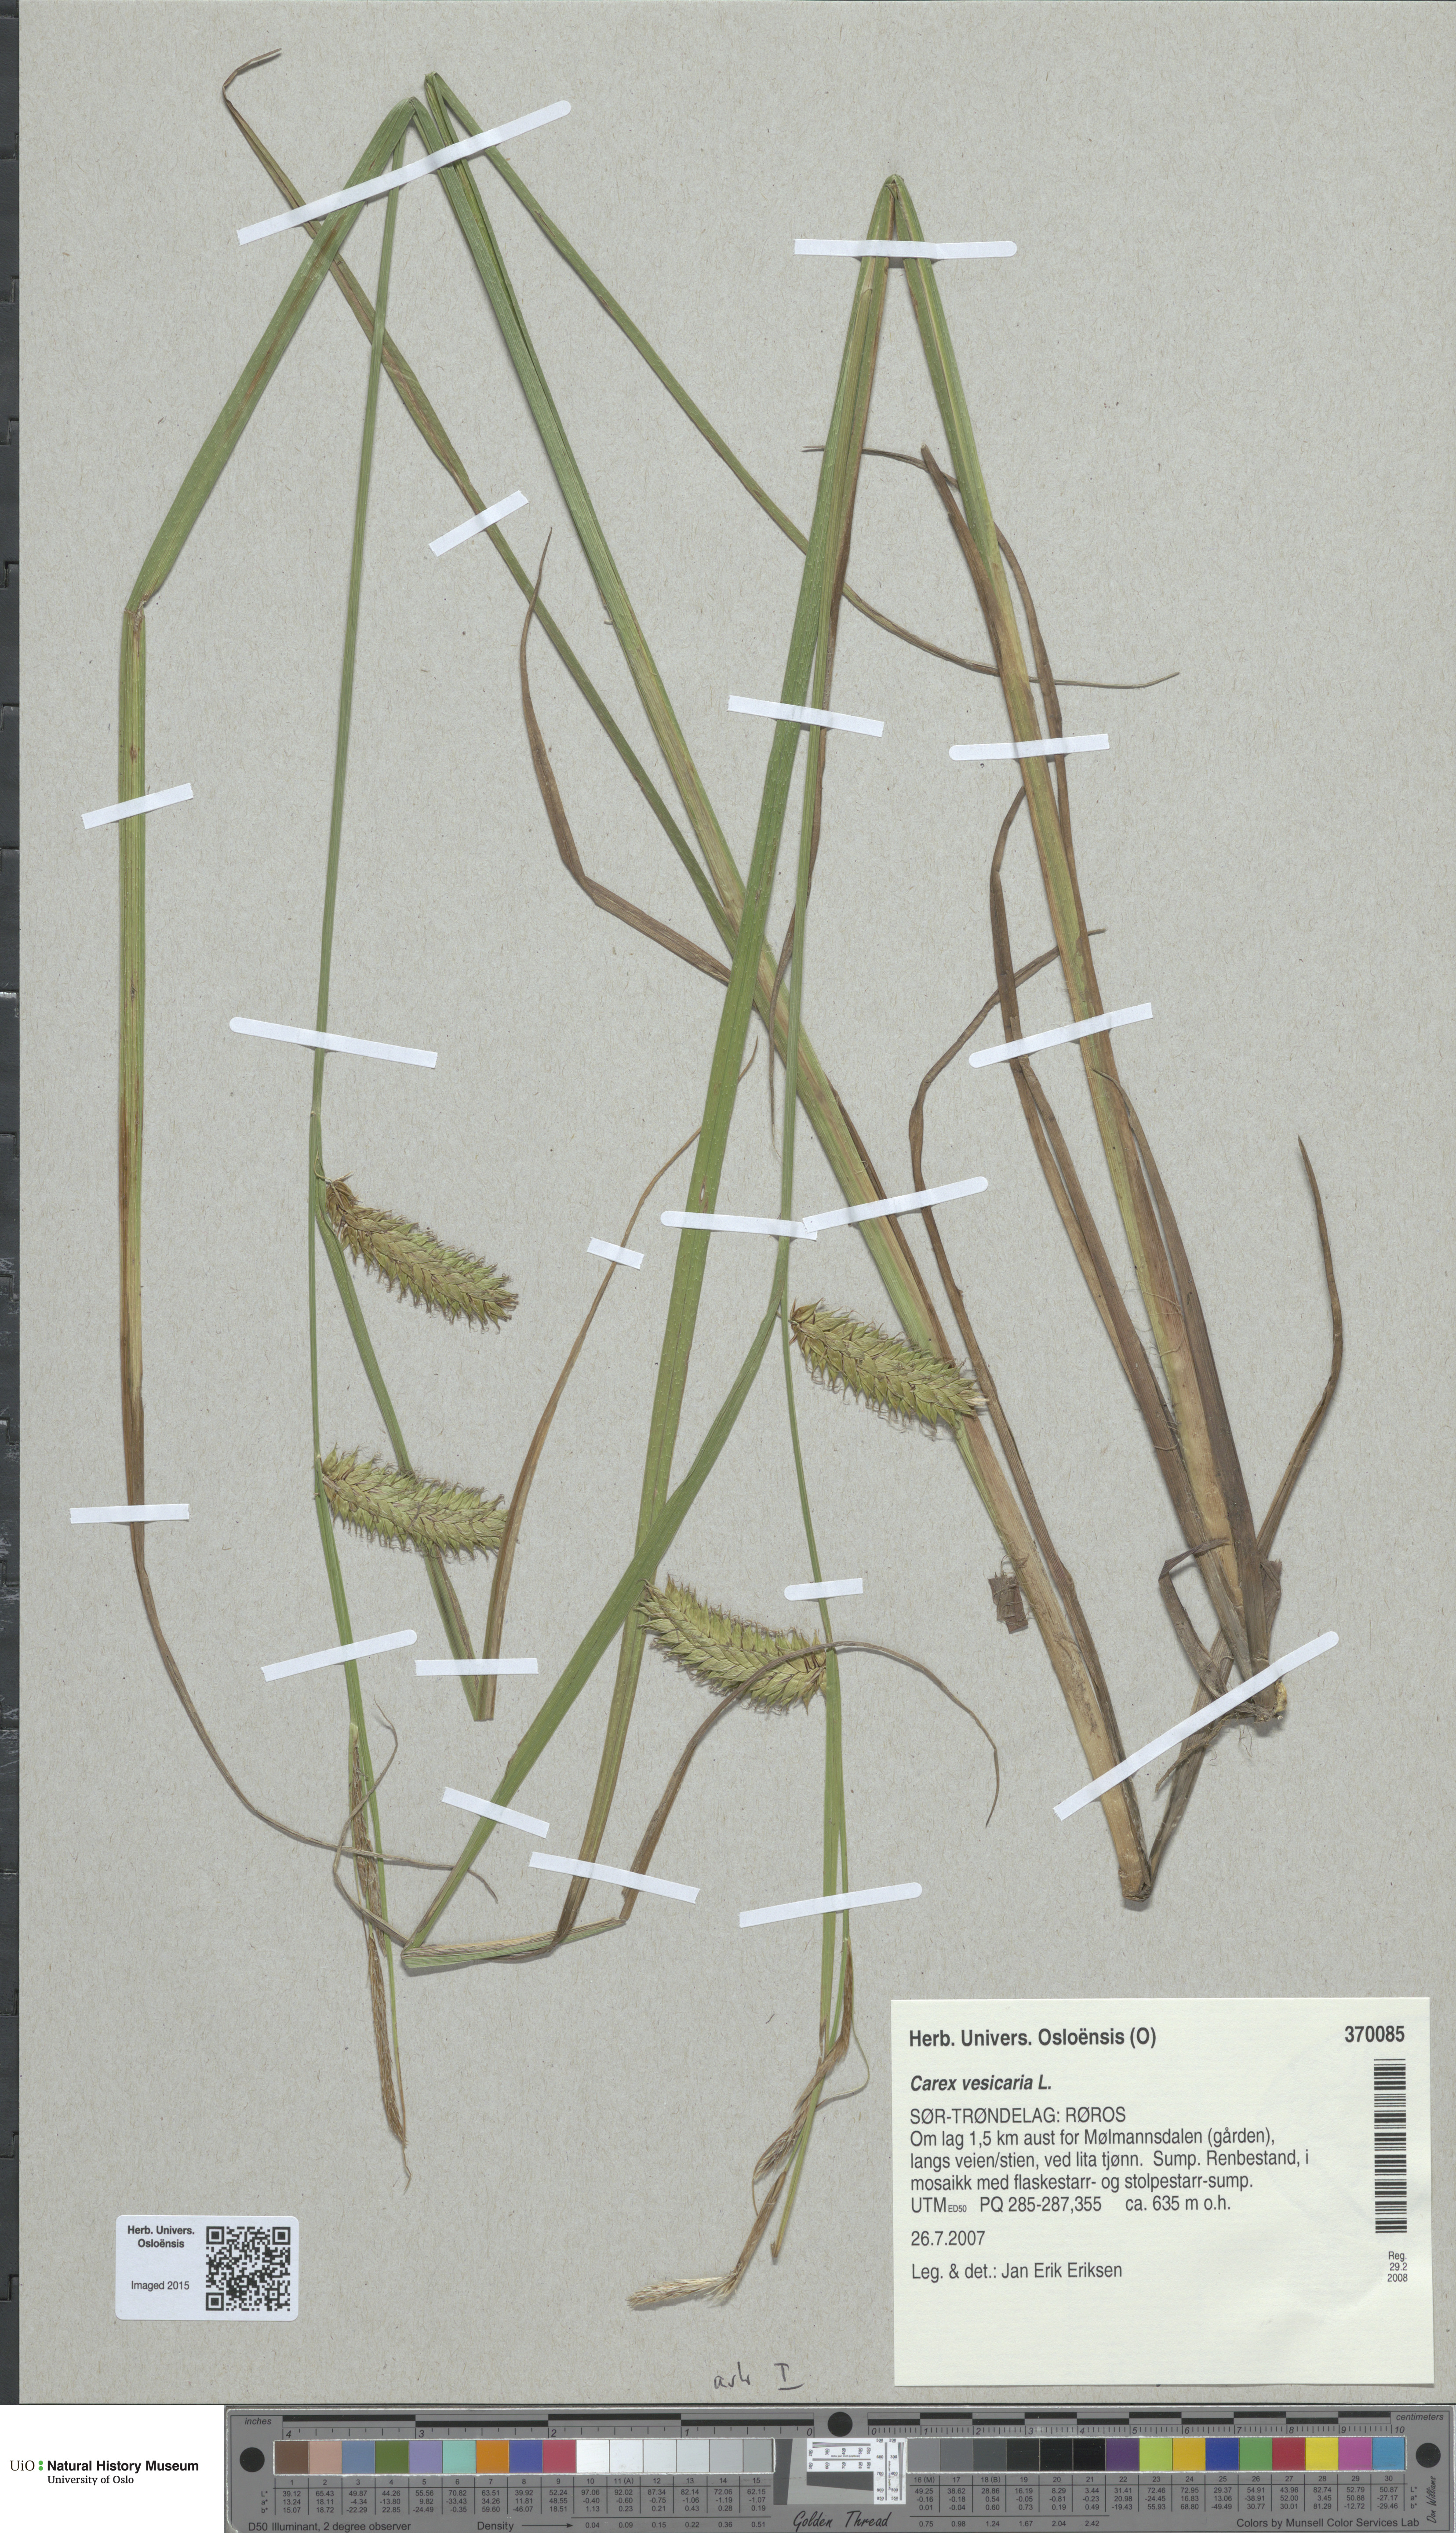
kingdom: Plantae
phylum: Tracheophyta
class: Liliopsida
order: Poales
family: Cyperaceae
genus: Carex
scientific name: Carex vesicaria
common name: Bladder-sedge
